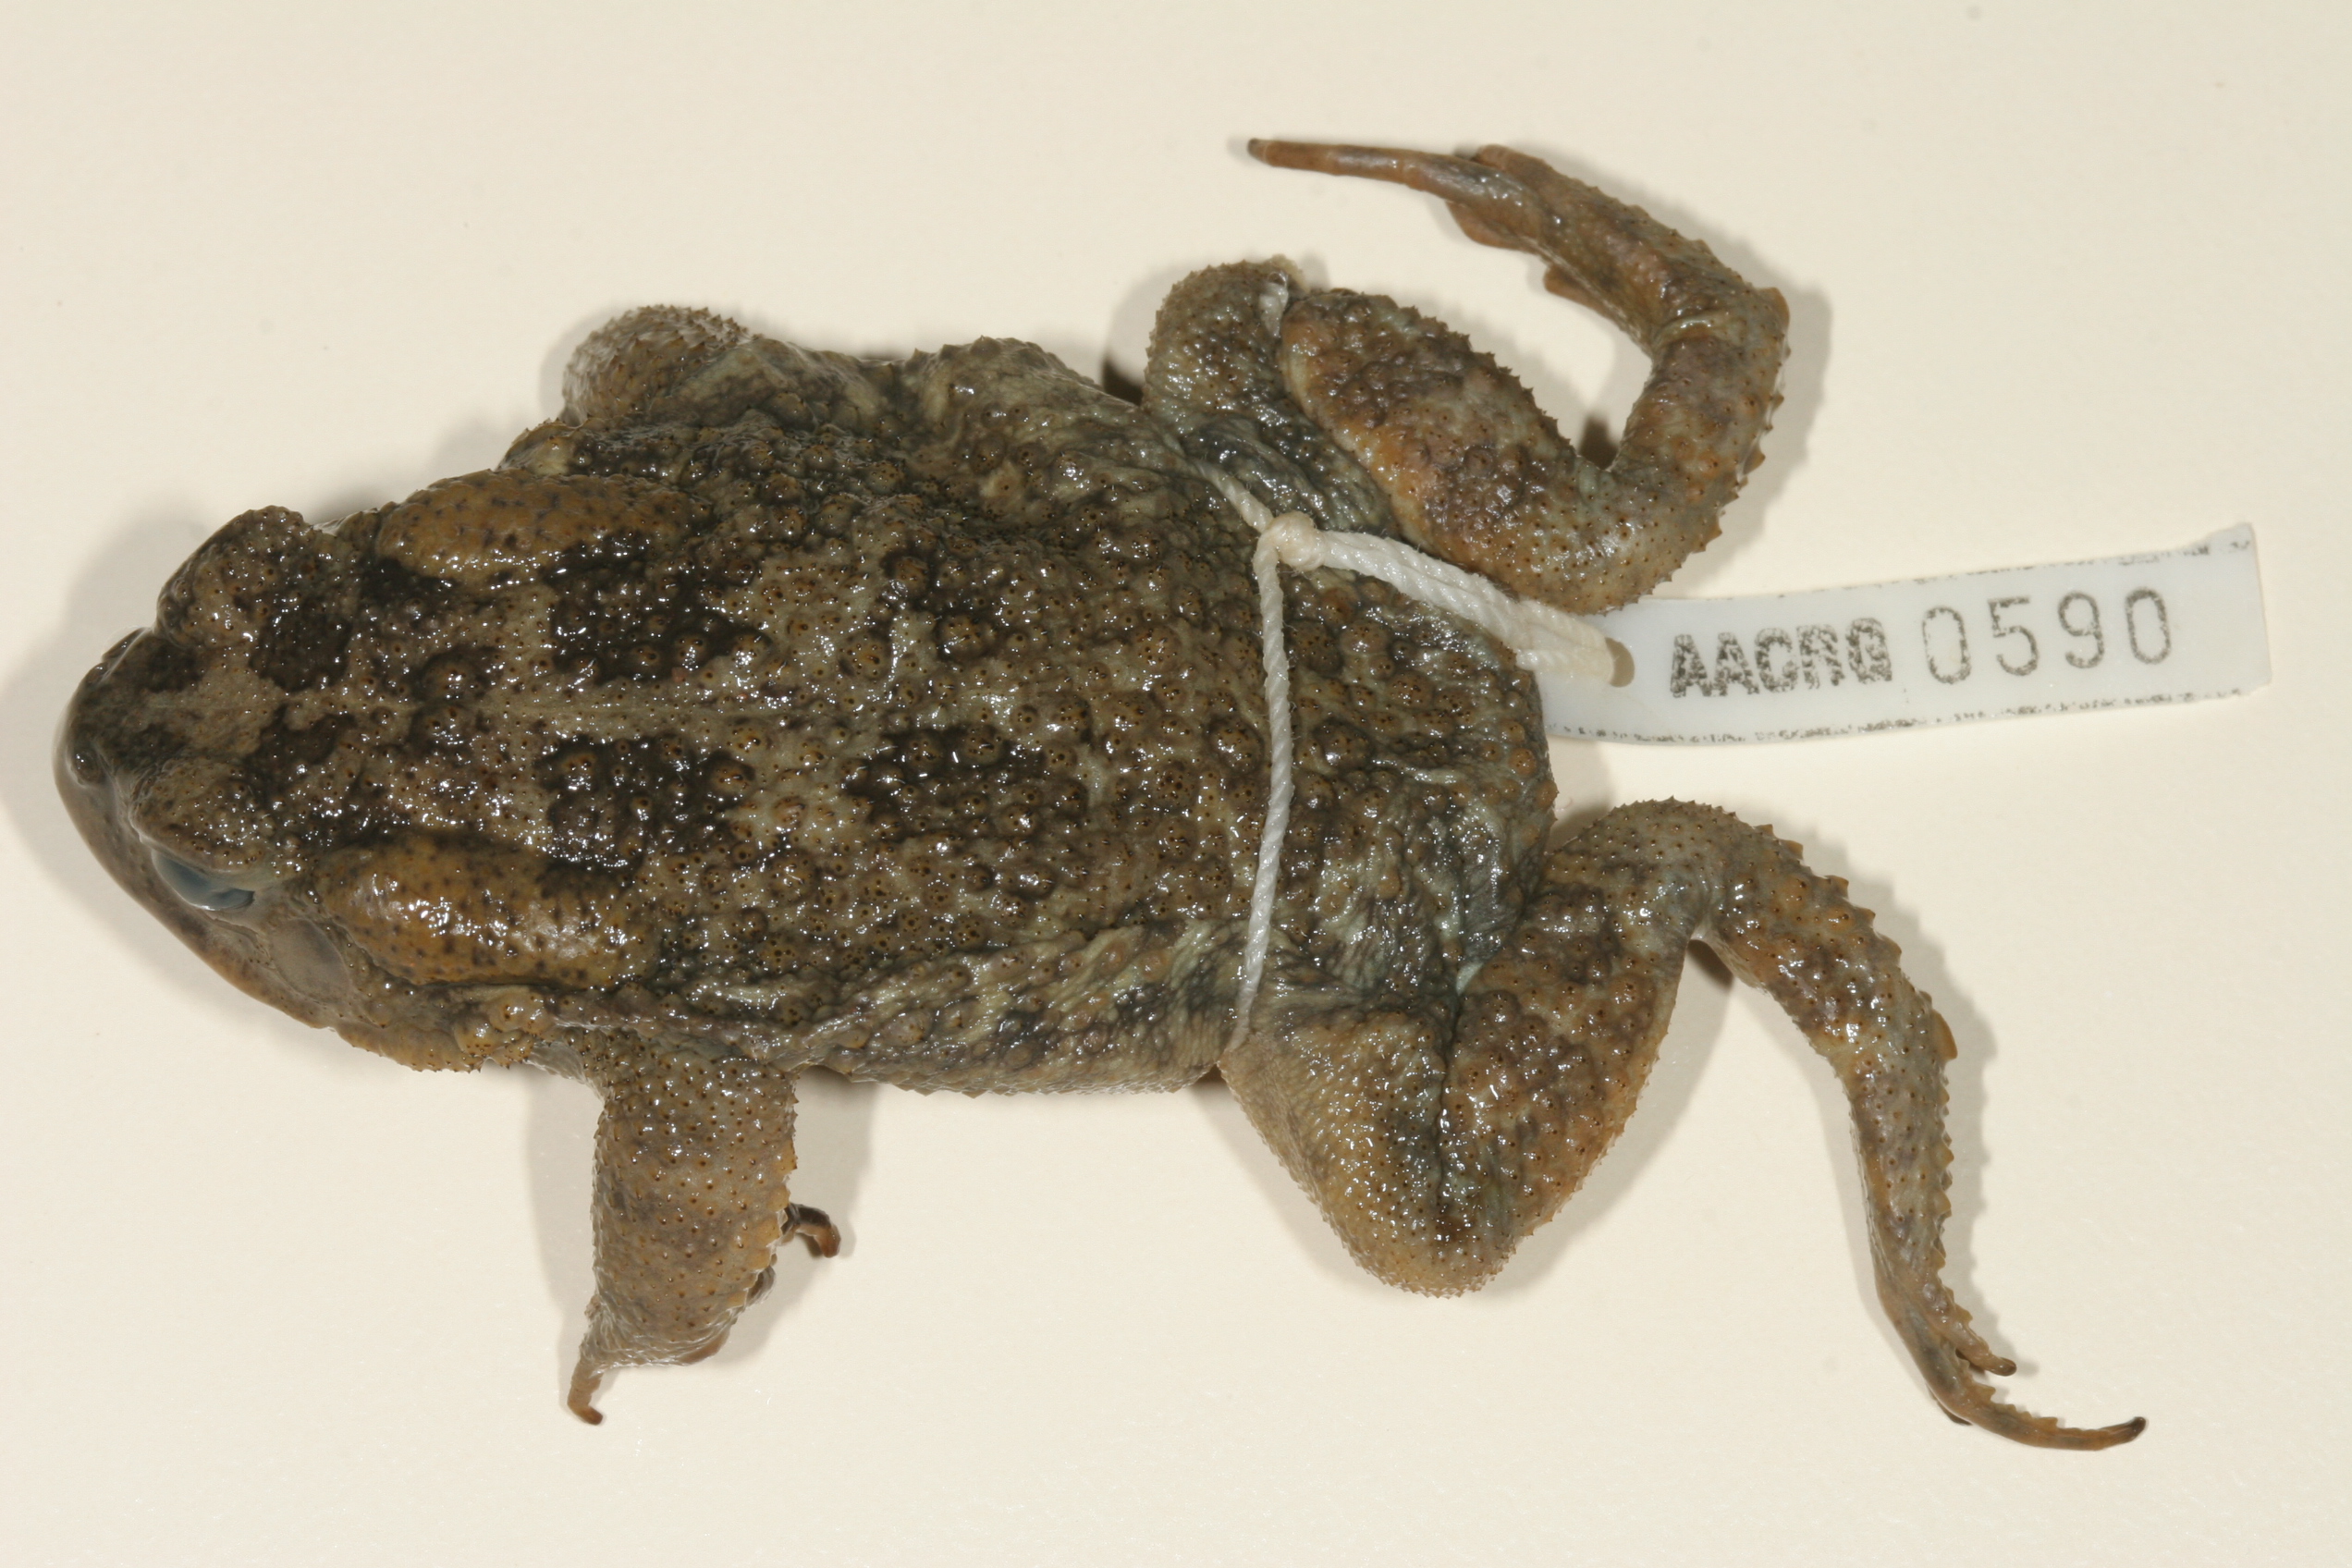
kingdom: Animalia
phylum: Chordata
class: Amphibia
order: Anura
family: Bufonidae
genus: Sclerophrys
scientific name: Sclerophrys gutturalis
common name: African common toad
